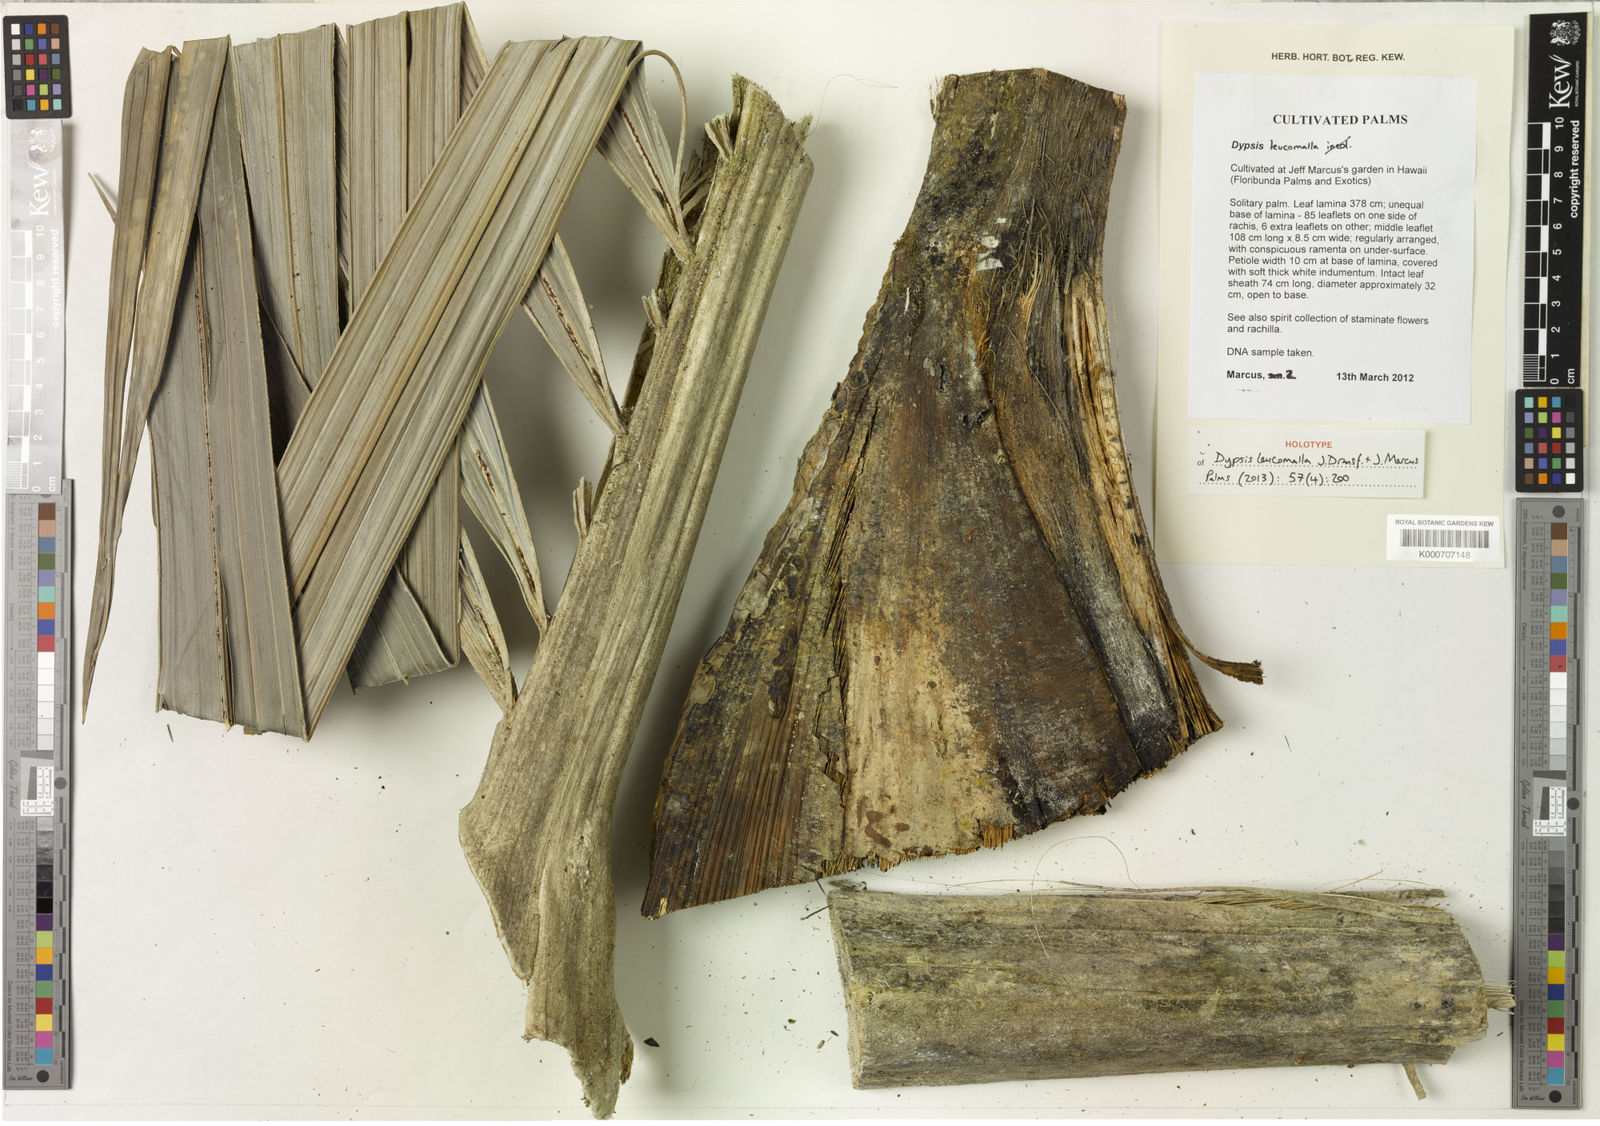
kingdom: Plantae
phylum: Tracheophyta
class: Liliopsida
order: Arecales
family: Arecaceae
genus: Dypsis
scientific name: Dypsis leucomalla
